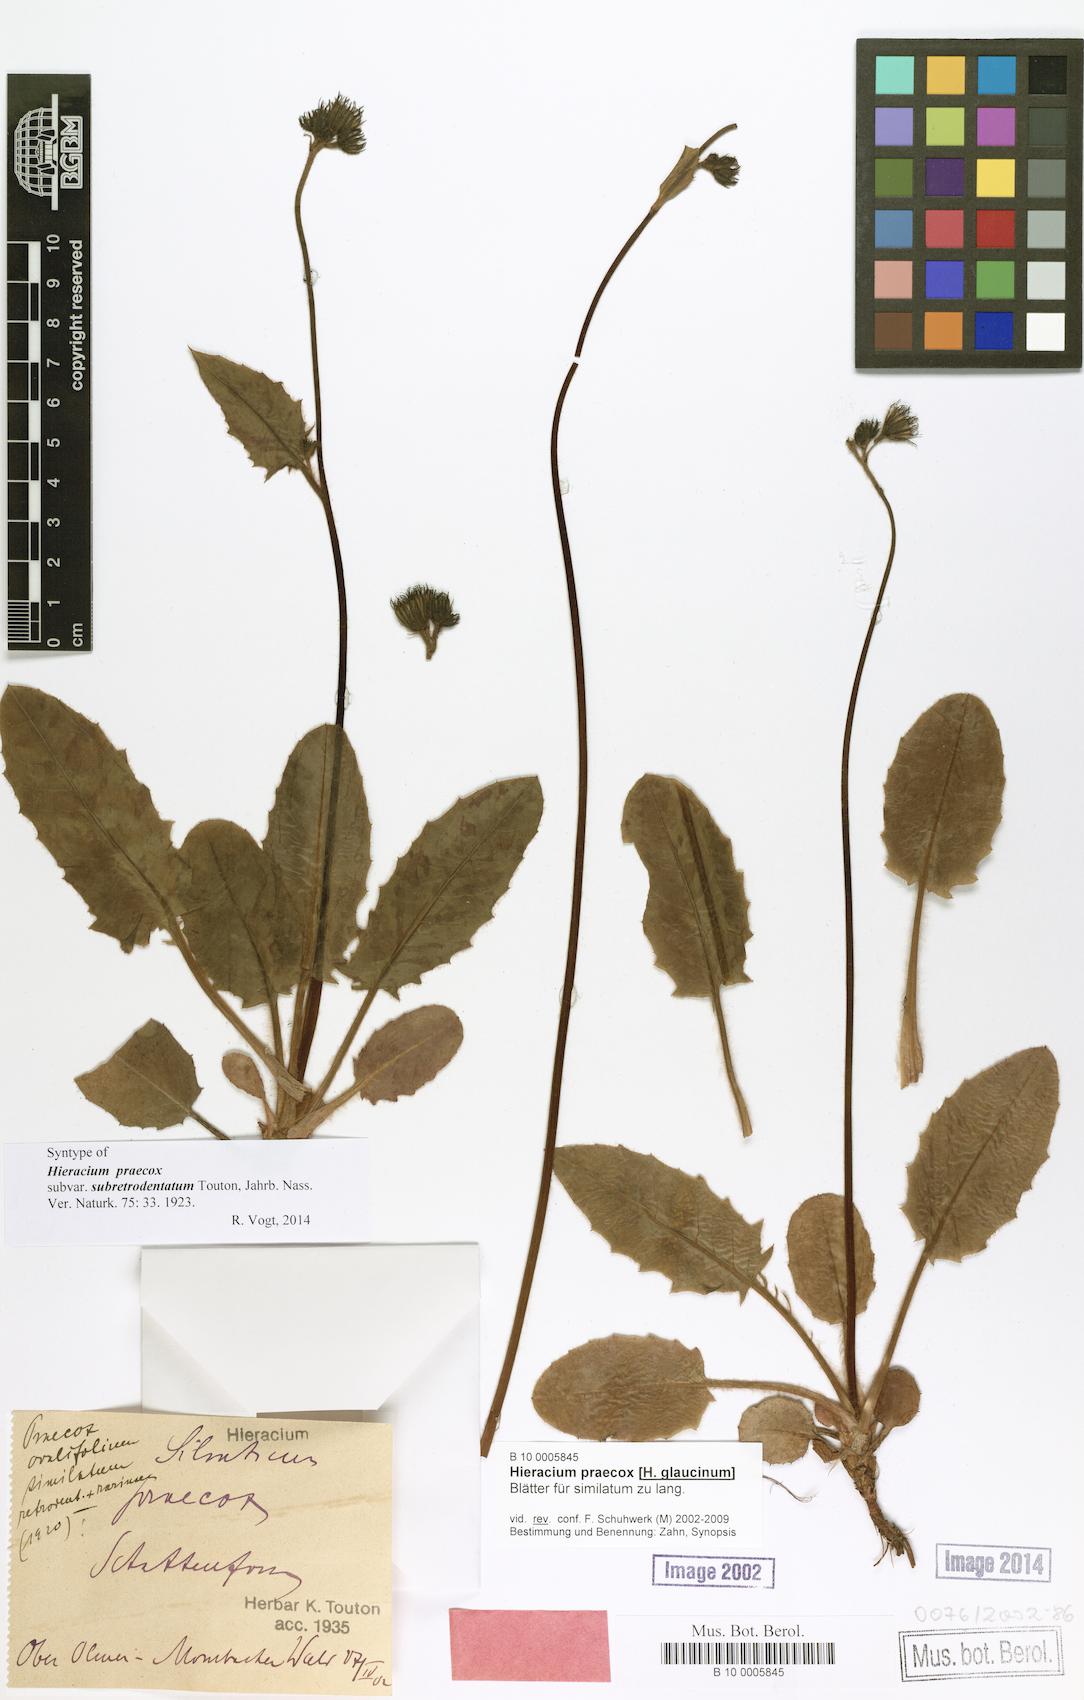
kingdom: Plantae
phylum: Tracheophyta
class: Magnoliopsida
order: Asterales
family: Asteraceae
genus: Hieracium
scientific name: Hieracium praecox
